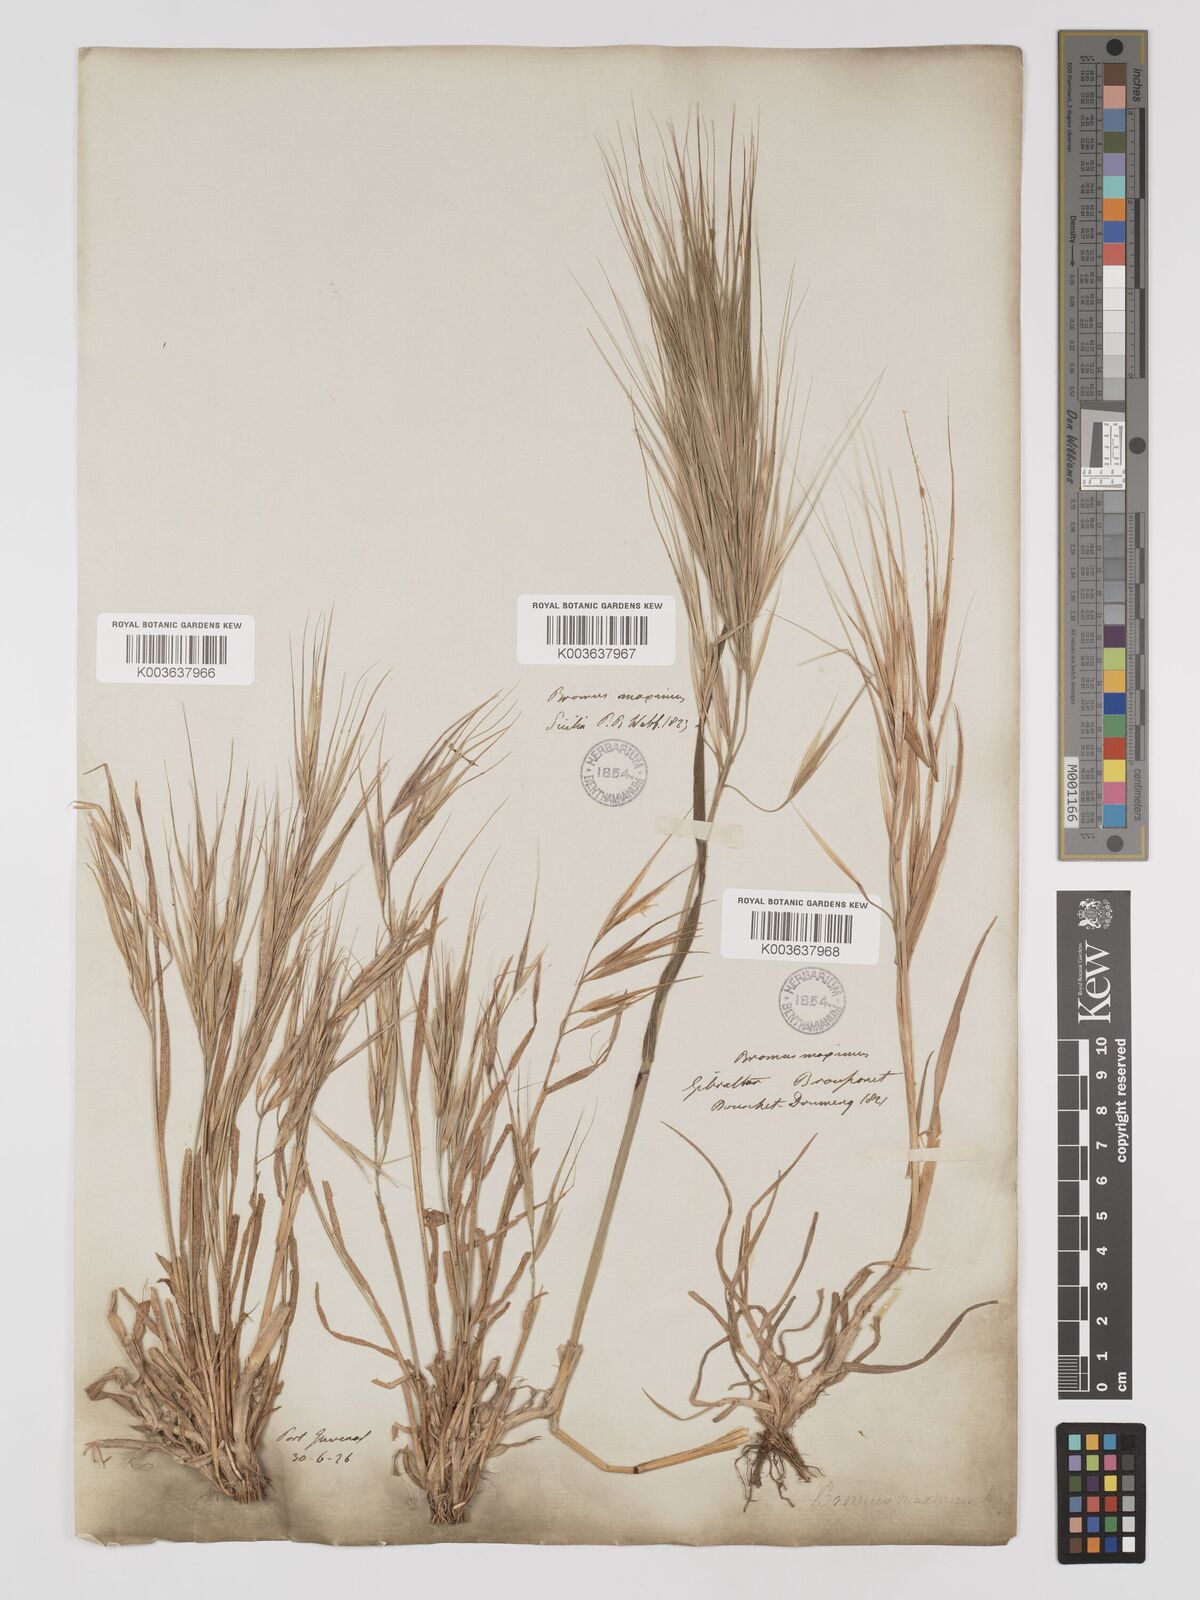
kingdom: Plantae
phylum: Tracheophyta
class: Liliopsida
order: Poales
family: Poaceae
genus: Bromus
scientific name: Bromus
